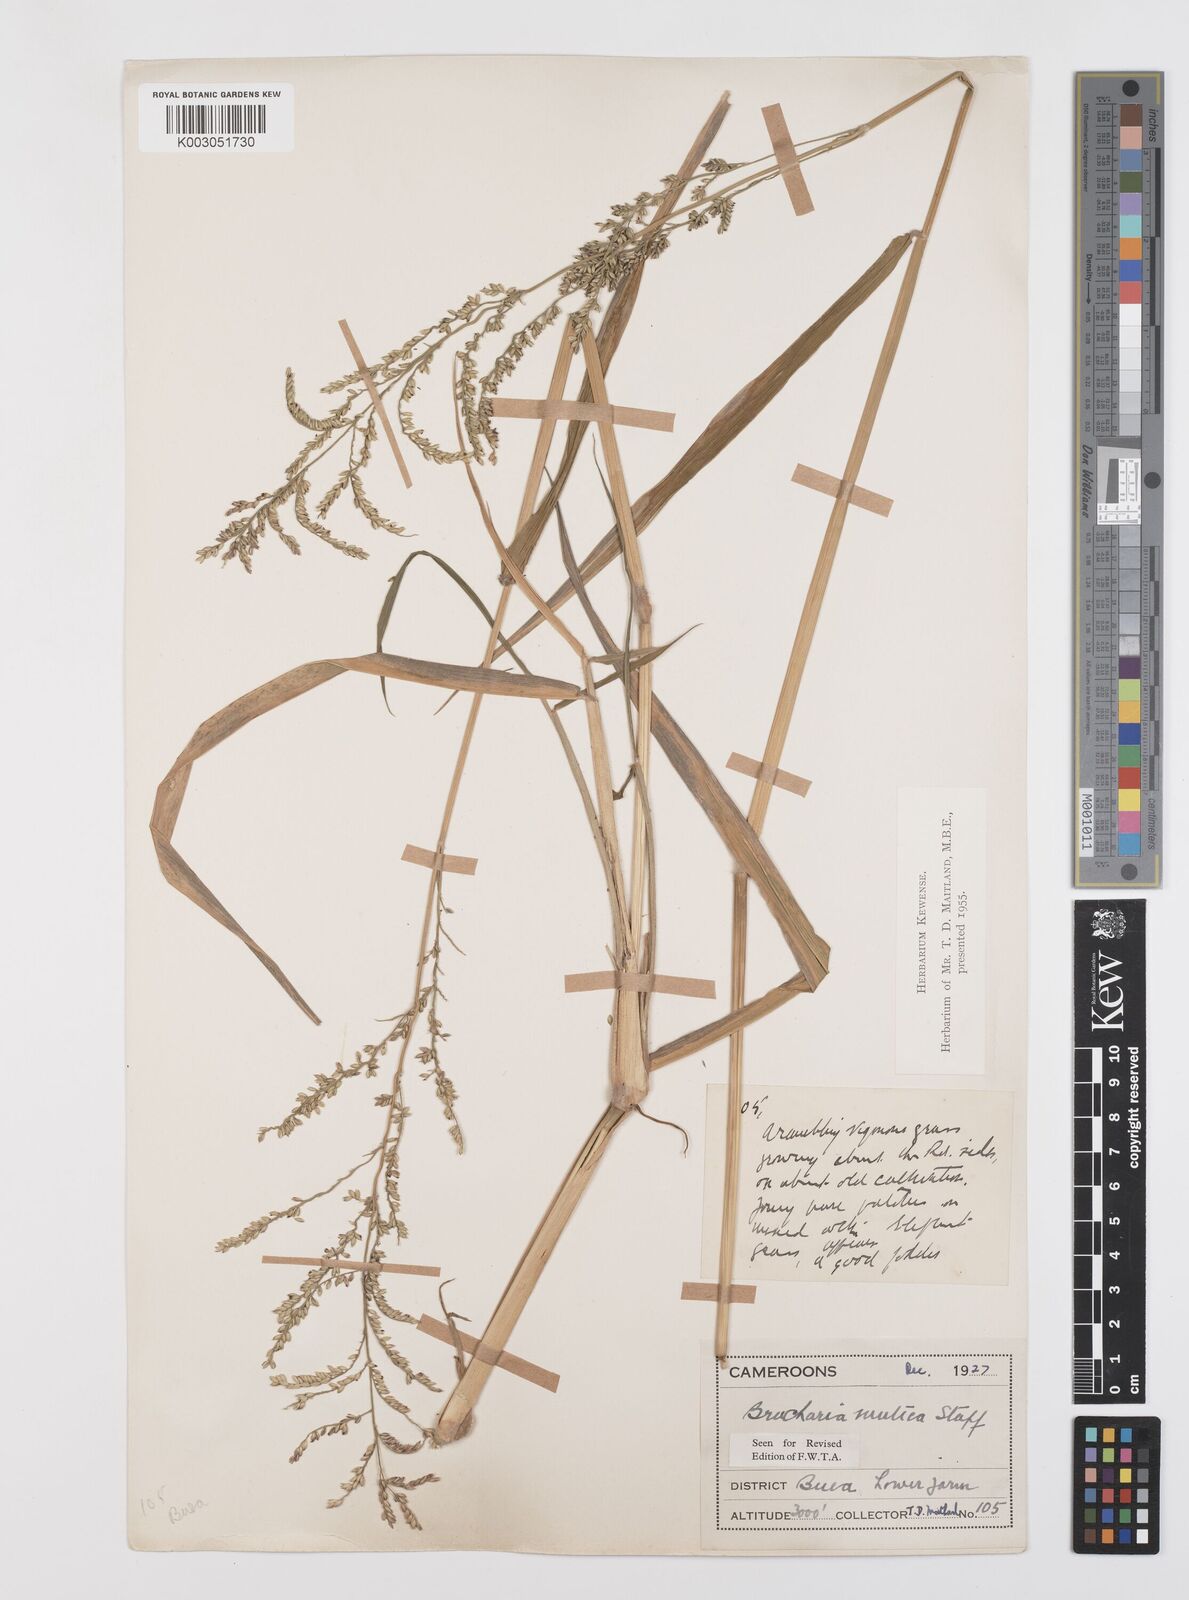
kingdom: Plantae
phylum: Tracheophyta
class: Liliopsida
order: Poales
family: Poaceae
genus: Urochloa
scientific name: Urochloa mutica
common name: Para grass
